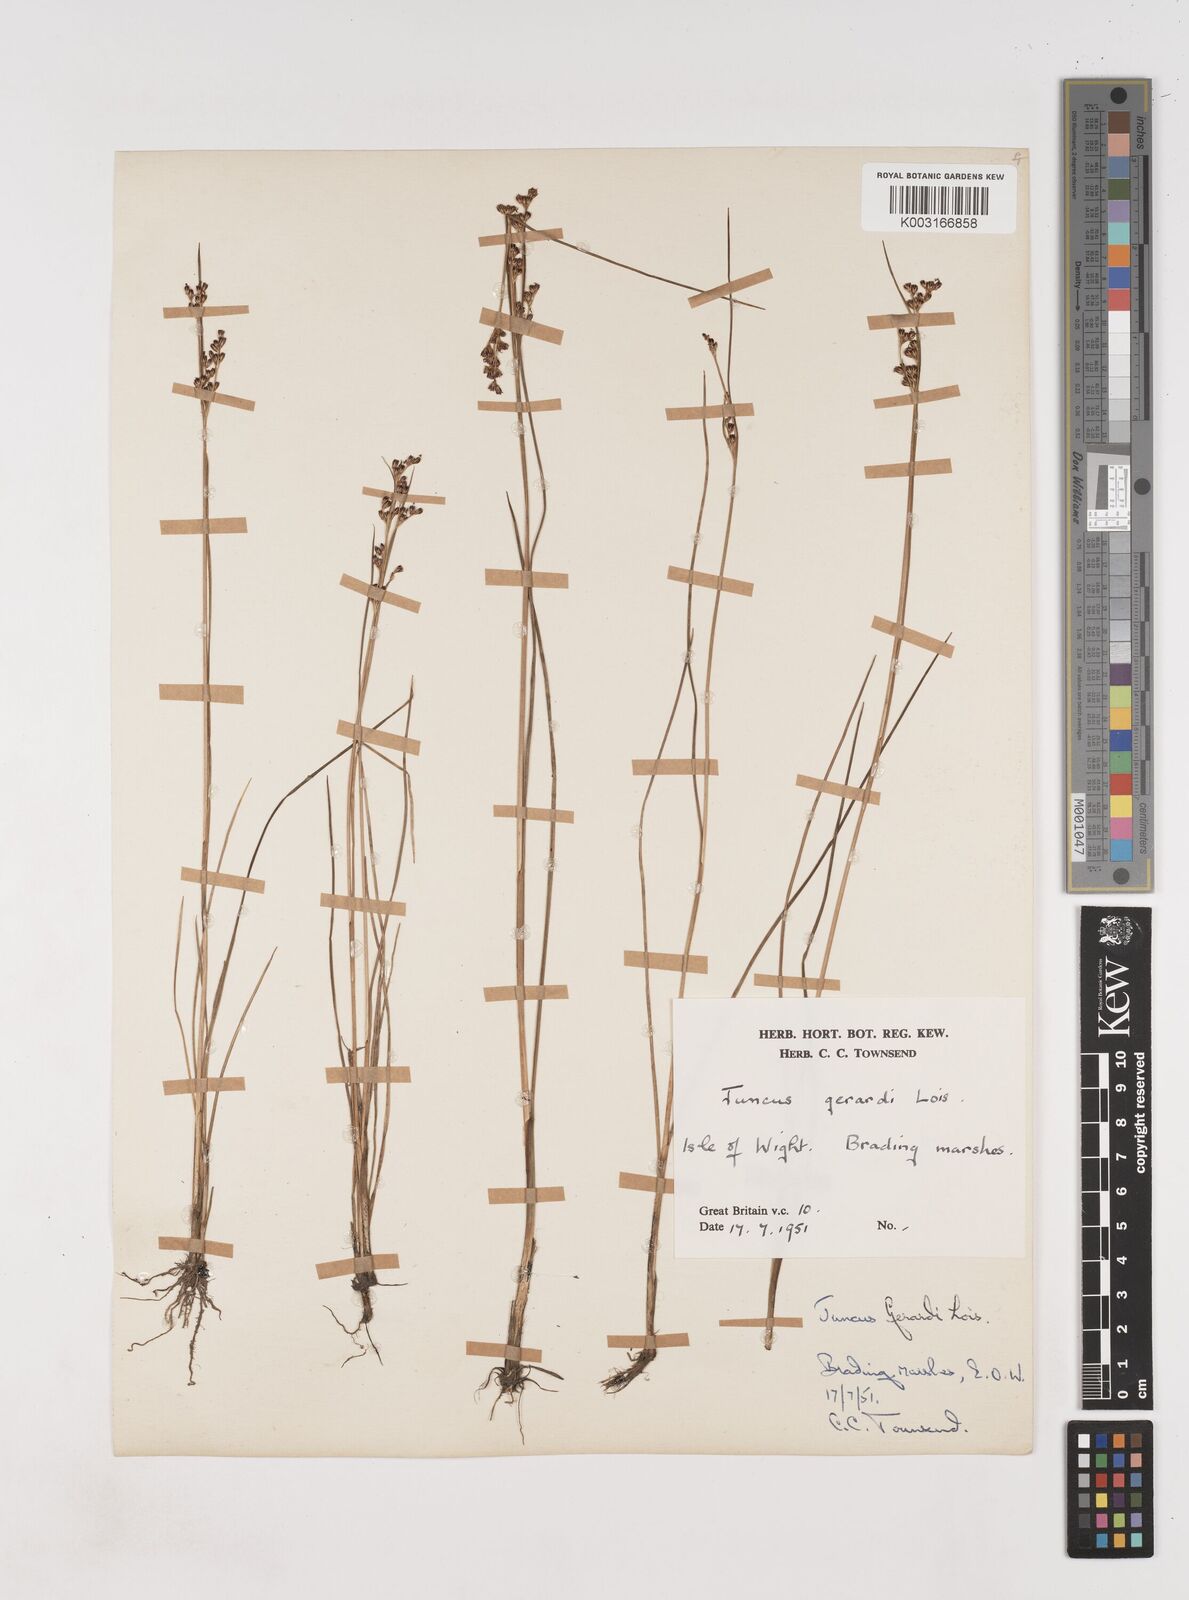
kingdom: Plantae
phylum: Tracheophyta
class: Liliopsida
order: Poales
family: Juncaceae
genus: Juncus
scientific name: Juncus gerardi
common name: Saltmarsh rush
